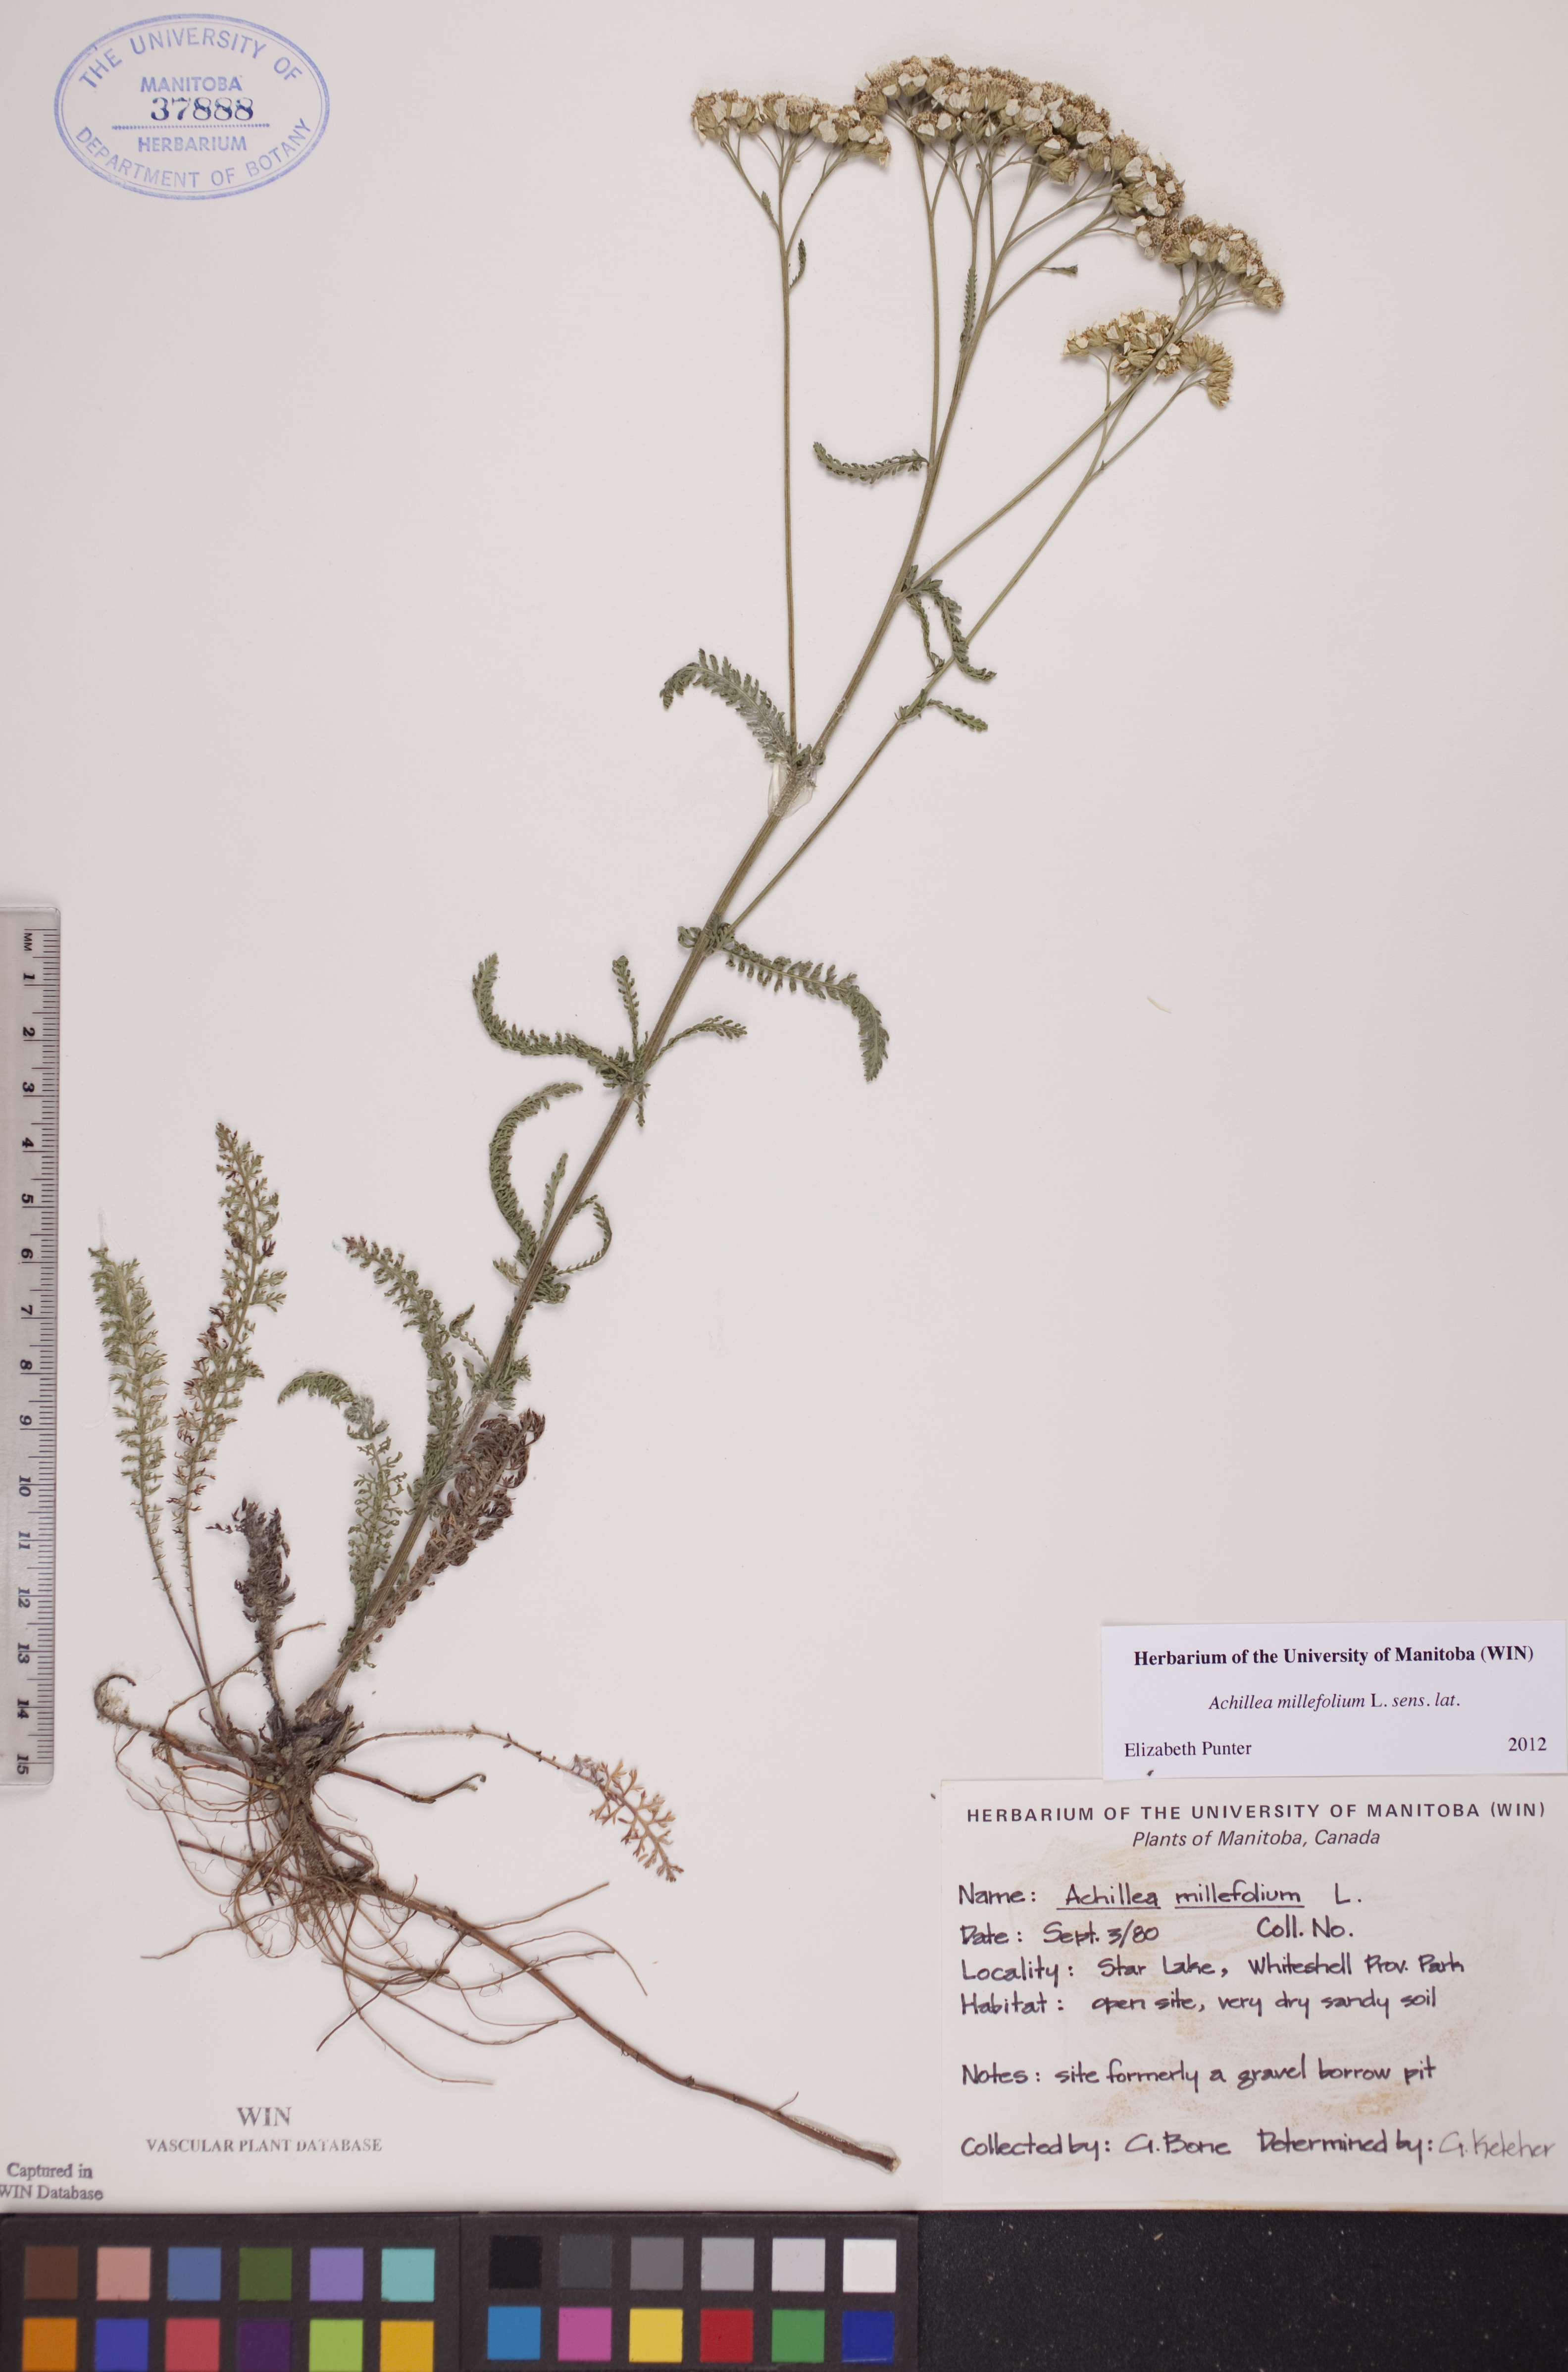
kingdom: Plantae
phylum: Tracheophyta
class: Magnoliopsida
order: Asterales
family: Asteraceae
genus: Achillea
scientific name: Achillea millefolium
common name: Yarrow
